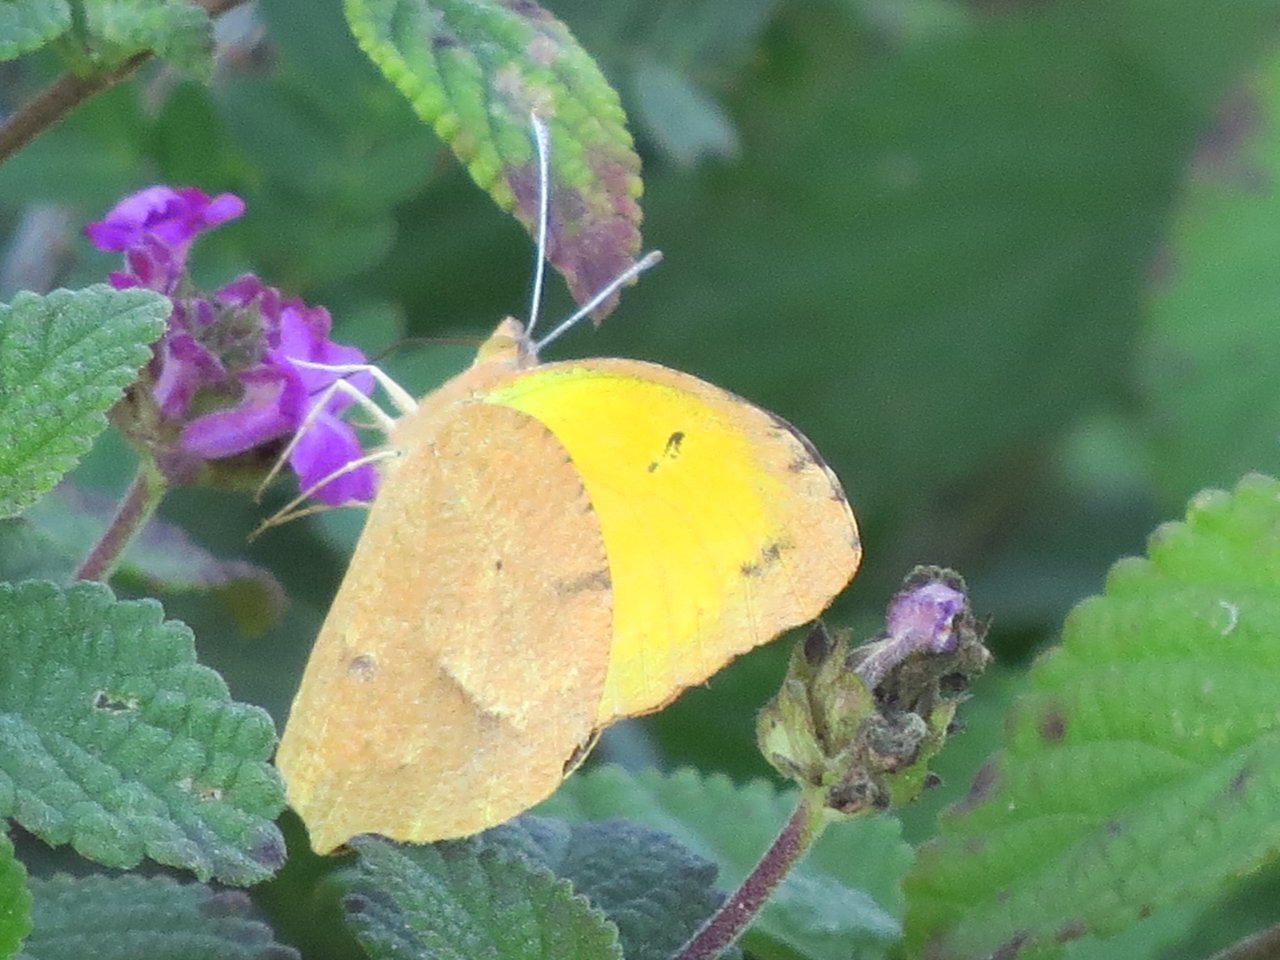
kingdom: Animalia
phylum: Arthropoda
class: Insecta
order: Lepidoptera
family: Pieridae
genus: Abaeis
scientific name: Abaeis nicippe
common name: Sleepy Orange
